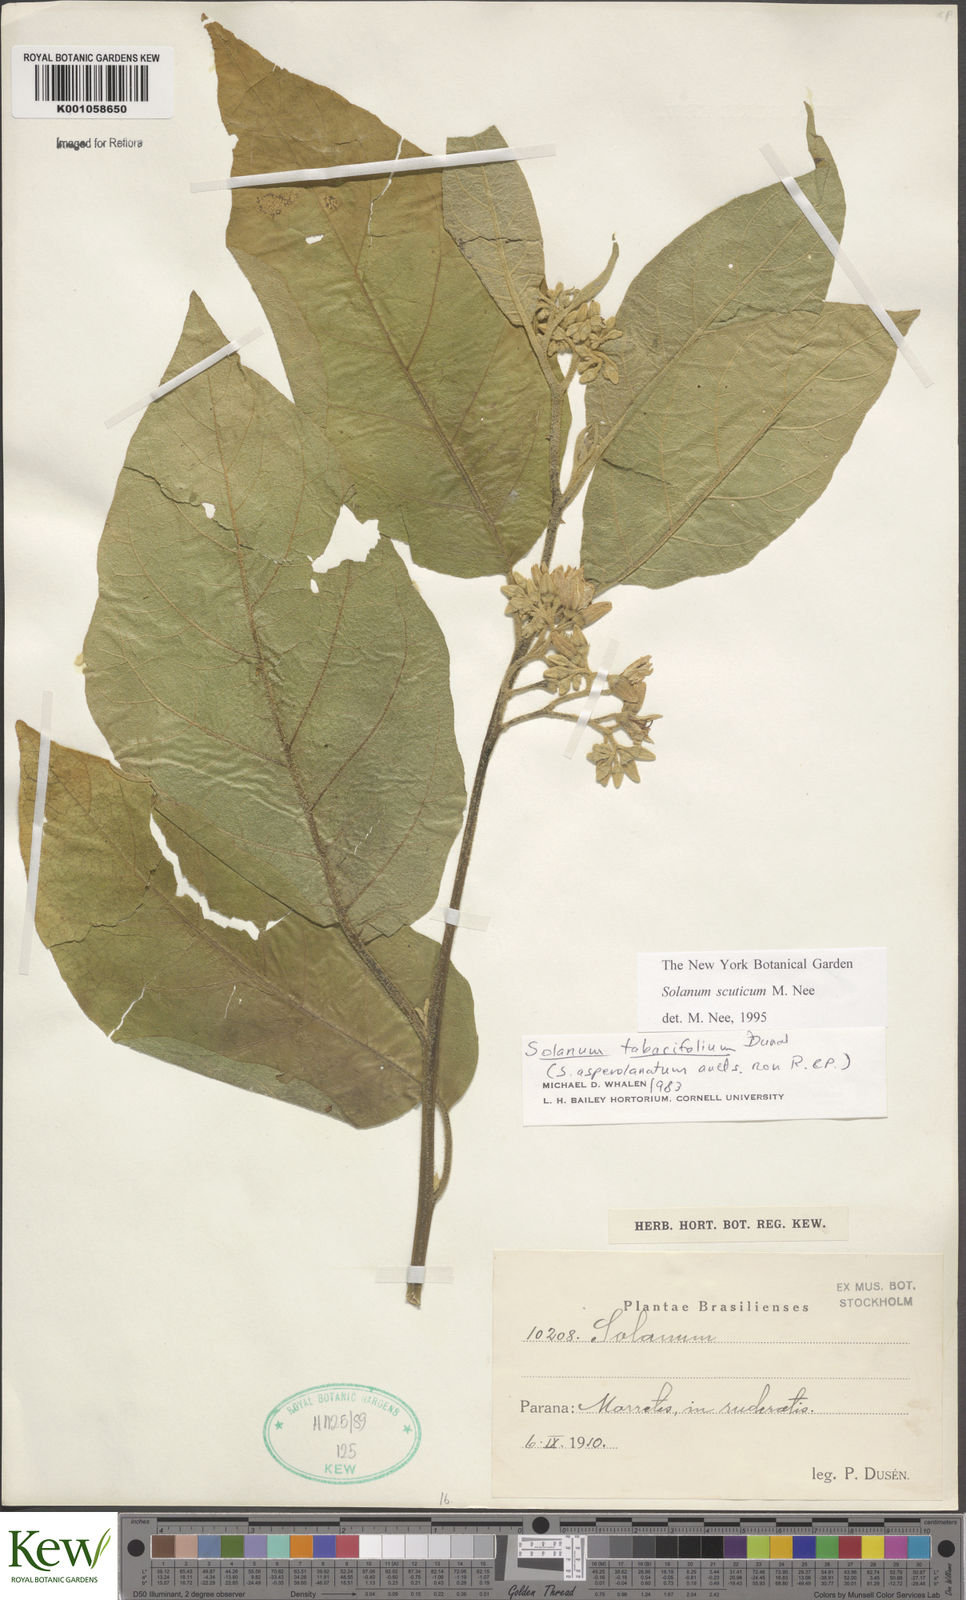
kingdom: Plantae
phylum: Tracheophyta
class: Magnoliopsida
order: Solanales
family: Solanaceae
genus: Solanum
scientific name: Solanum scuticum
